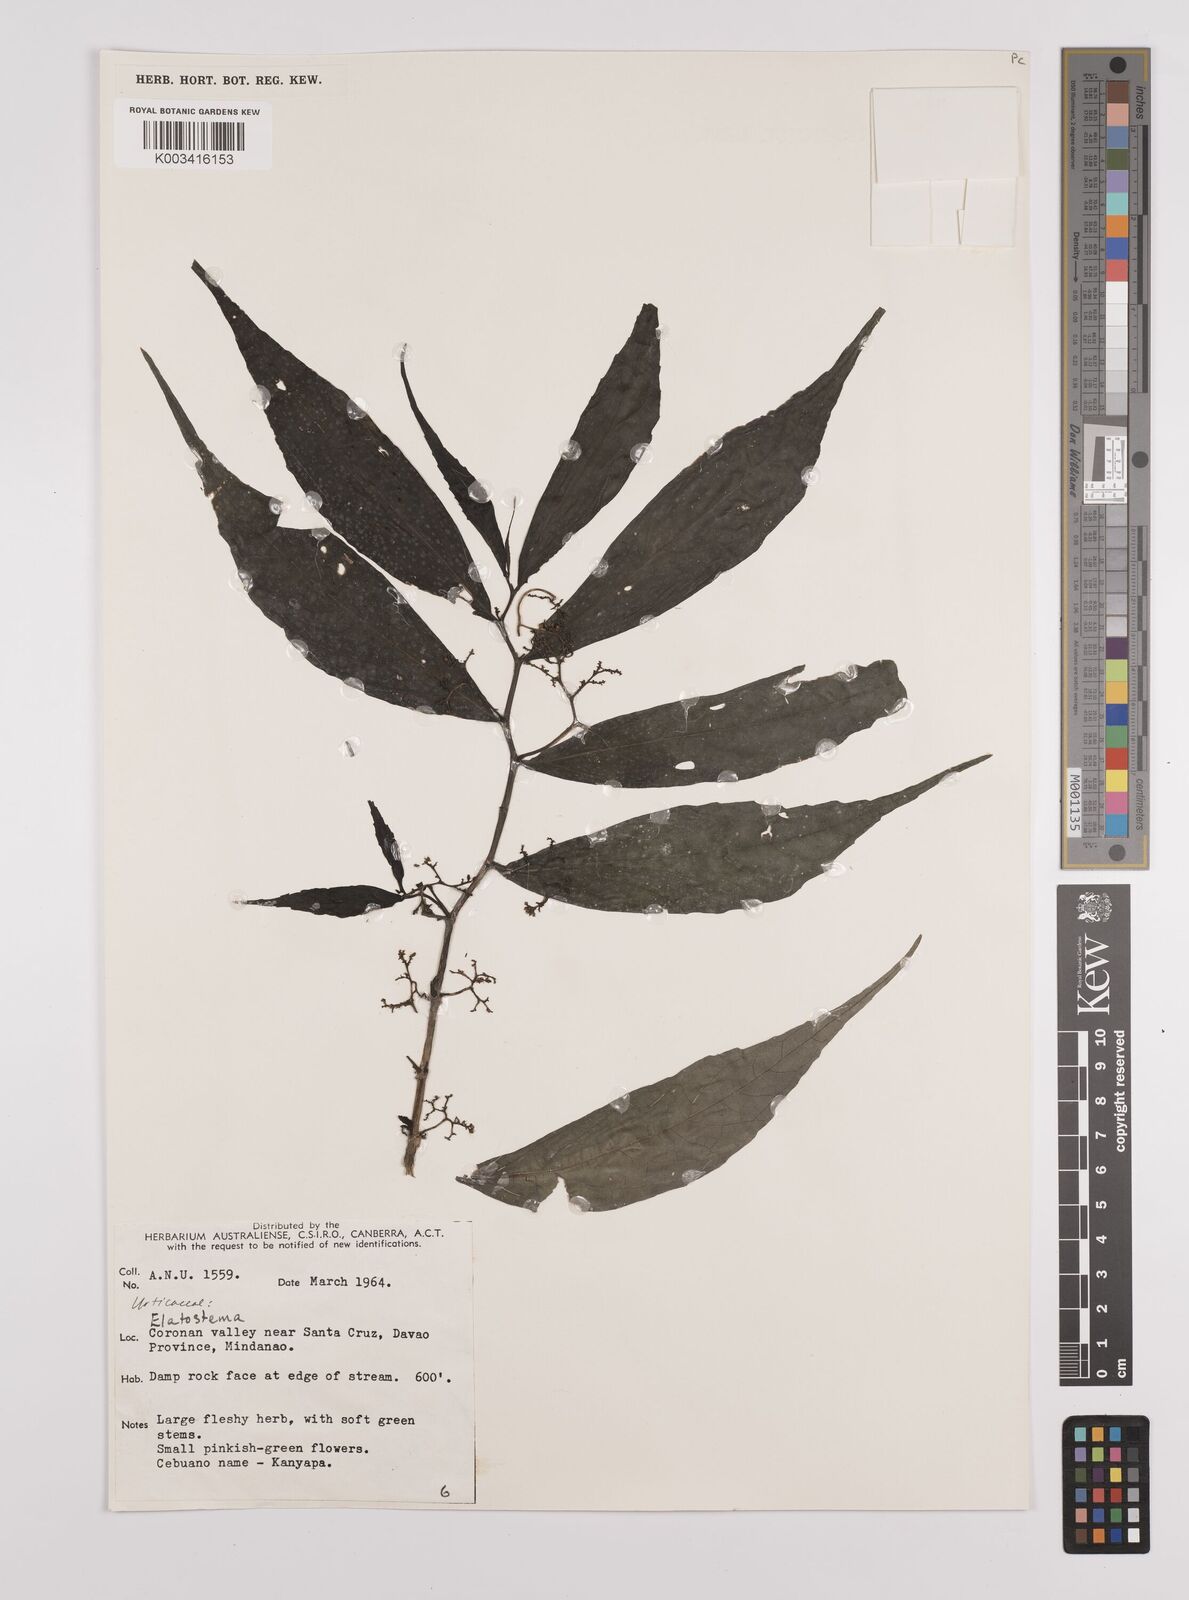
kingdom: Plantae
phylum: Tracheophyta
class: Magnoliopsida
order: Rosales
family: Urticaceae
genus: Elatostema
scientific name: Elatostema
